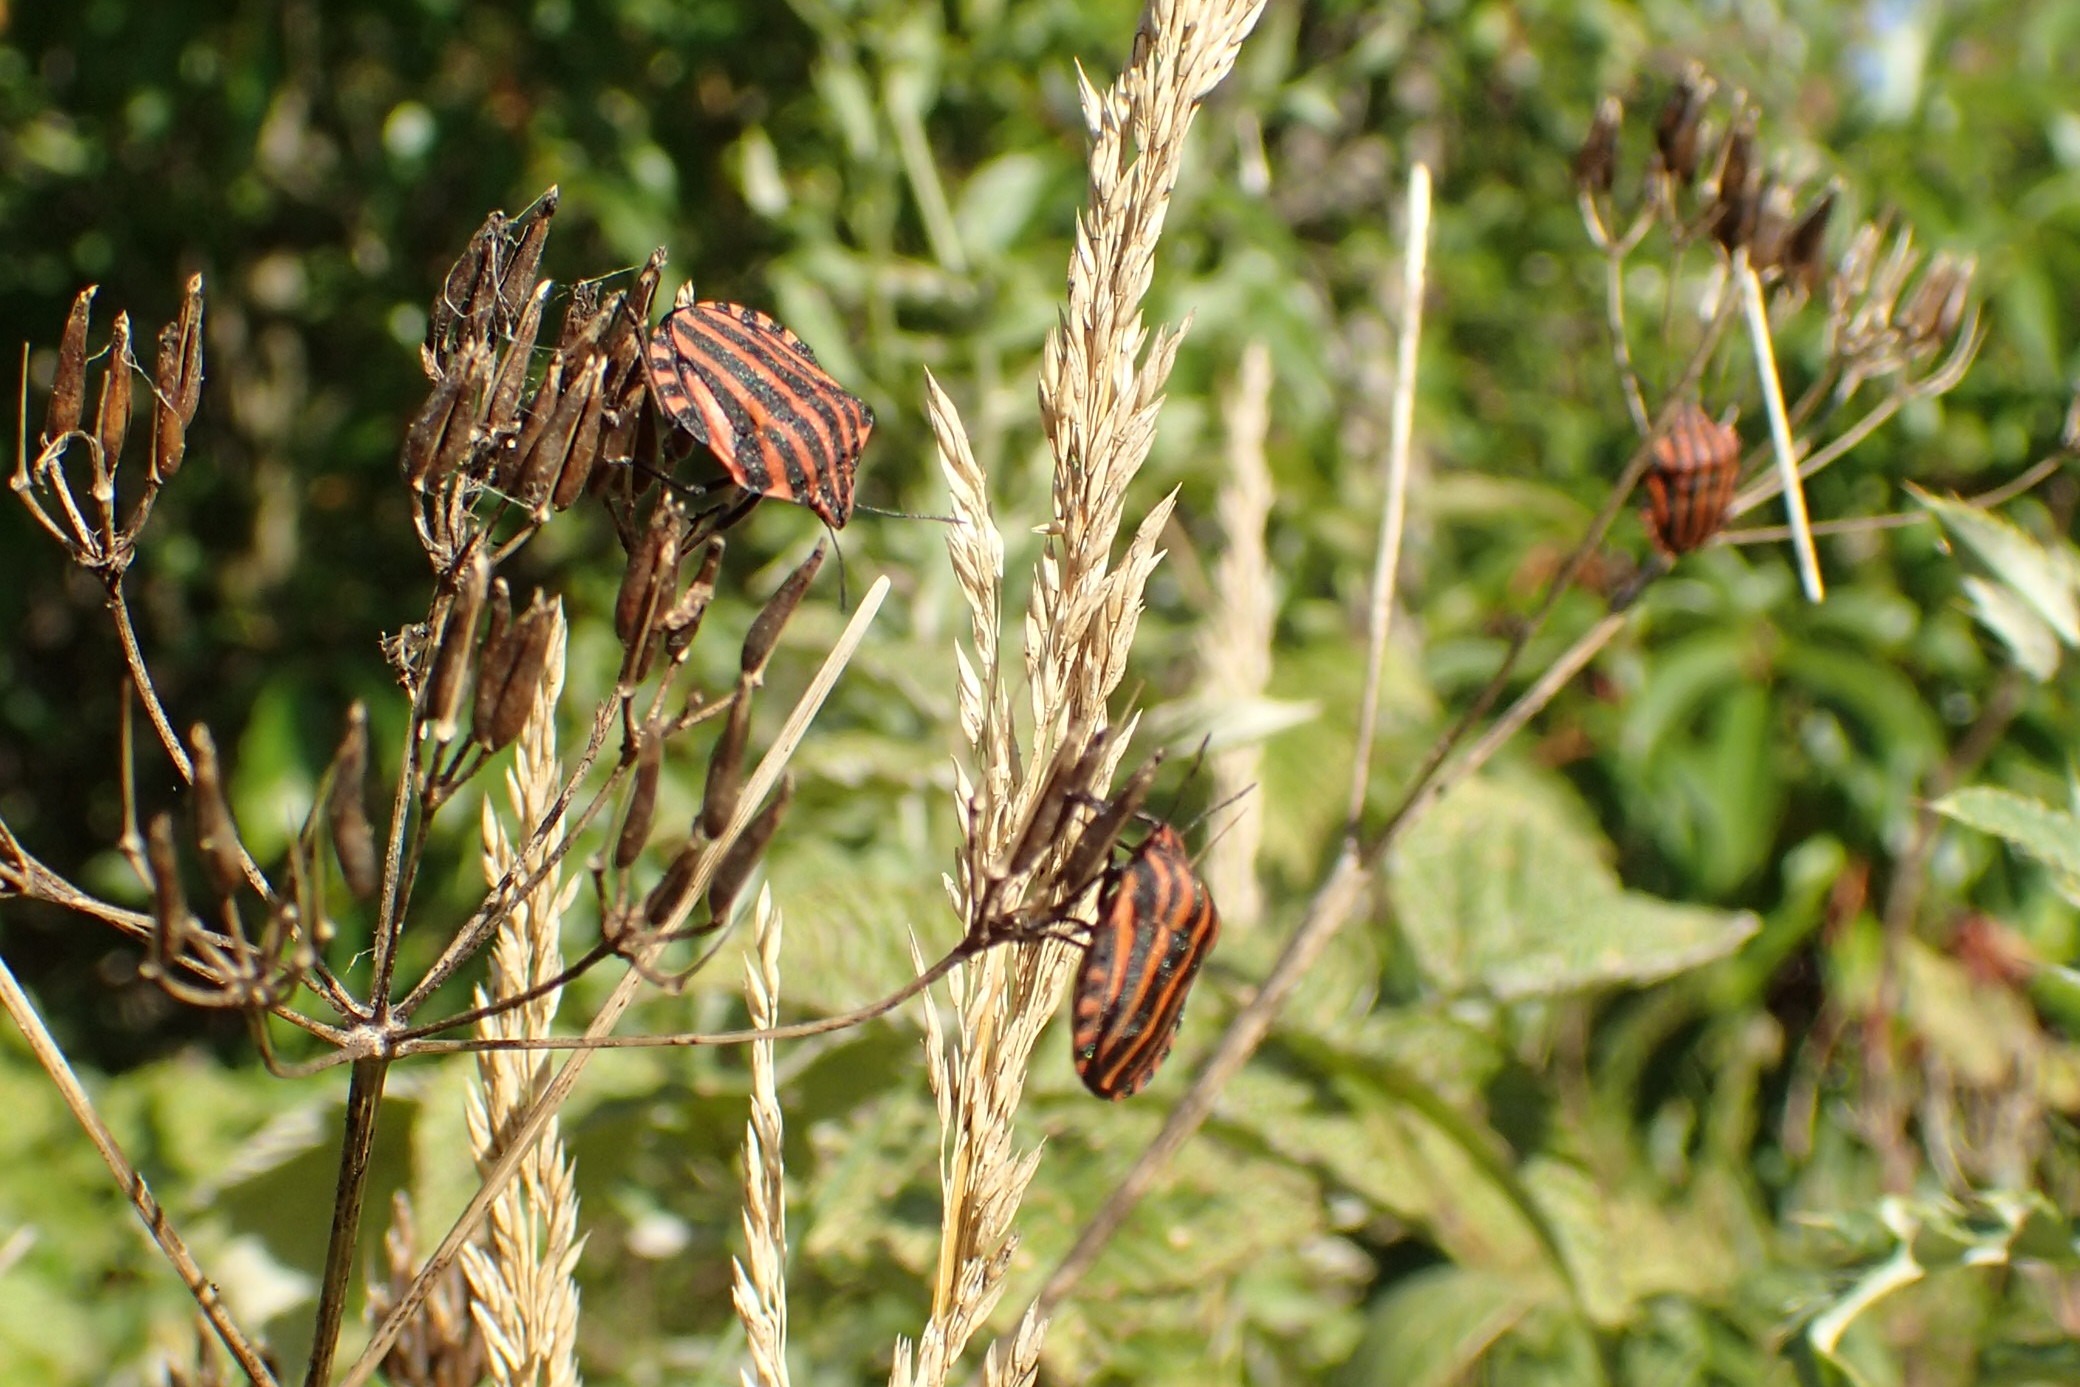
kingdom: Animalia
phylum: Arthropoda
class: Insecta
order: Hemiptera
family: Pentatomidae
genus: Graphosoma
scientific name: Graphosoma italicum
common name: Stribetæge
